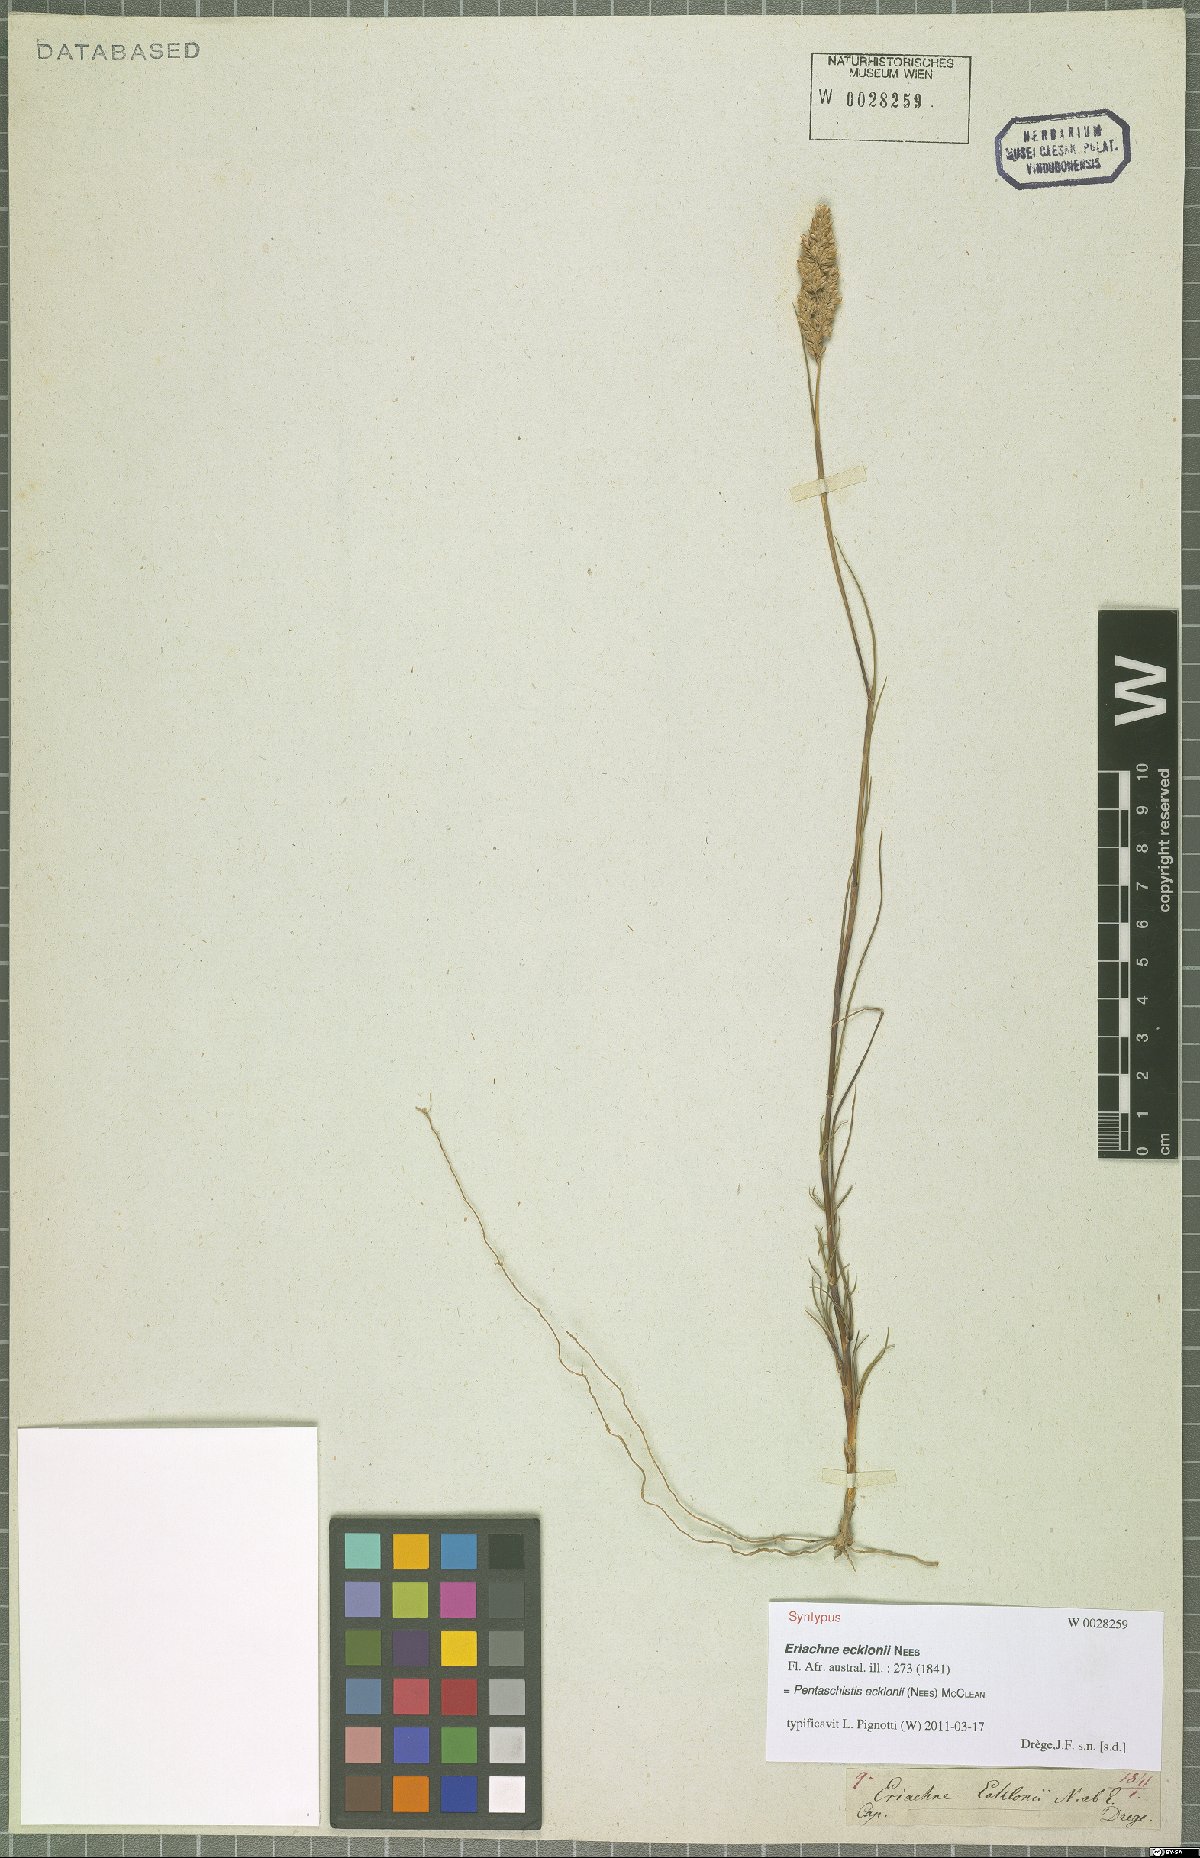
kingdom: Plantae
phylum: Tracheophyta
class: Liliopsida
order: Poales
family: Poaceae
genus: Pentameris
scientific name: Pentameris ecklonii
